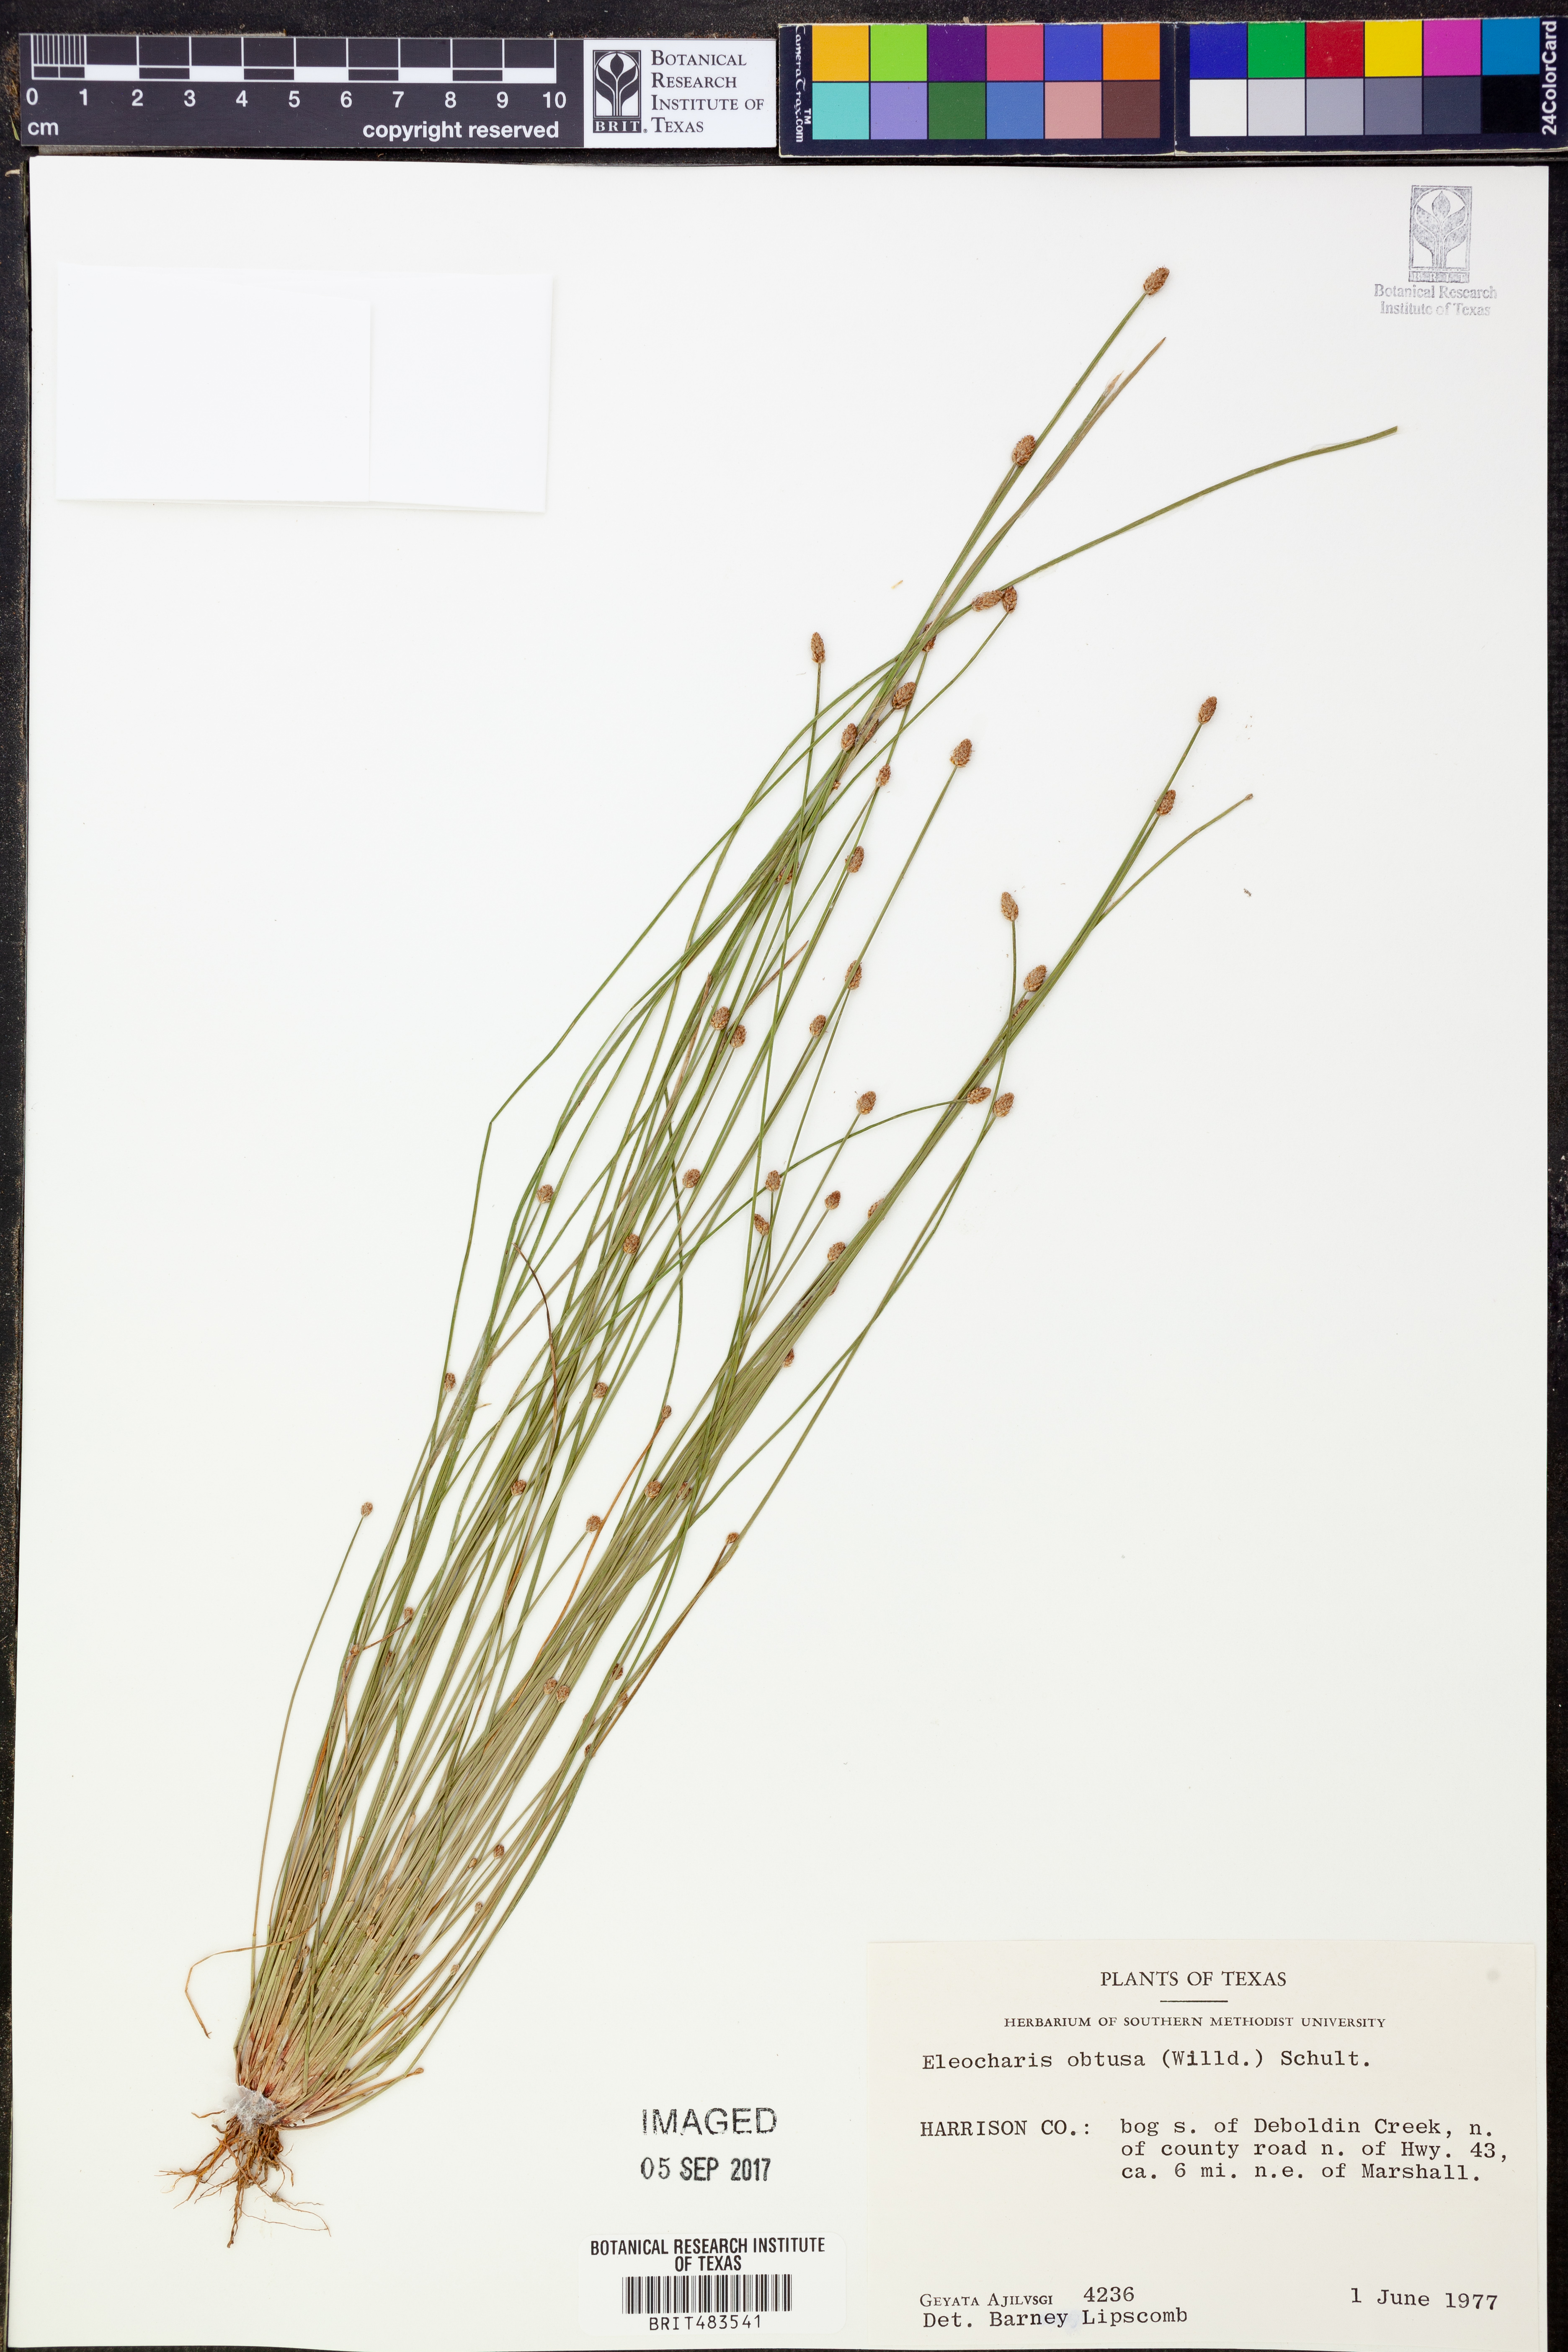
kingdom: Plantae
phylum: Tracheophyta
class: Liliopsida
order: Poales
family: Cyperaceae
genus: Eleocharis
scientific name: Eleocharis obtusa
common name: Blunt spikerush
